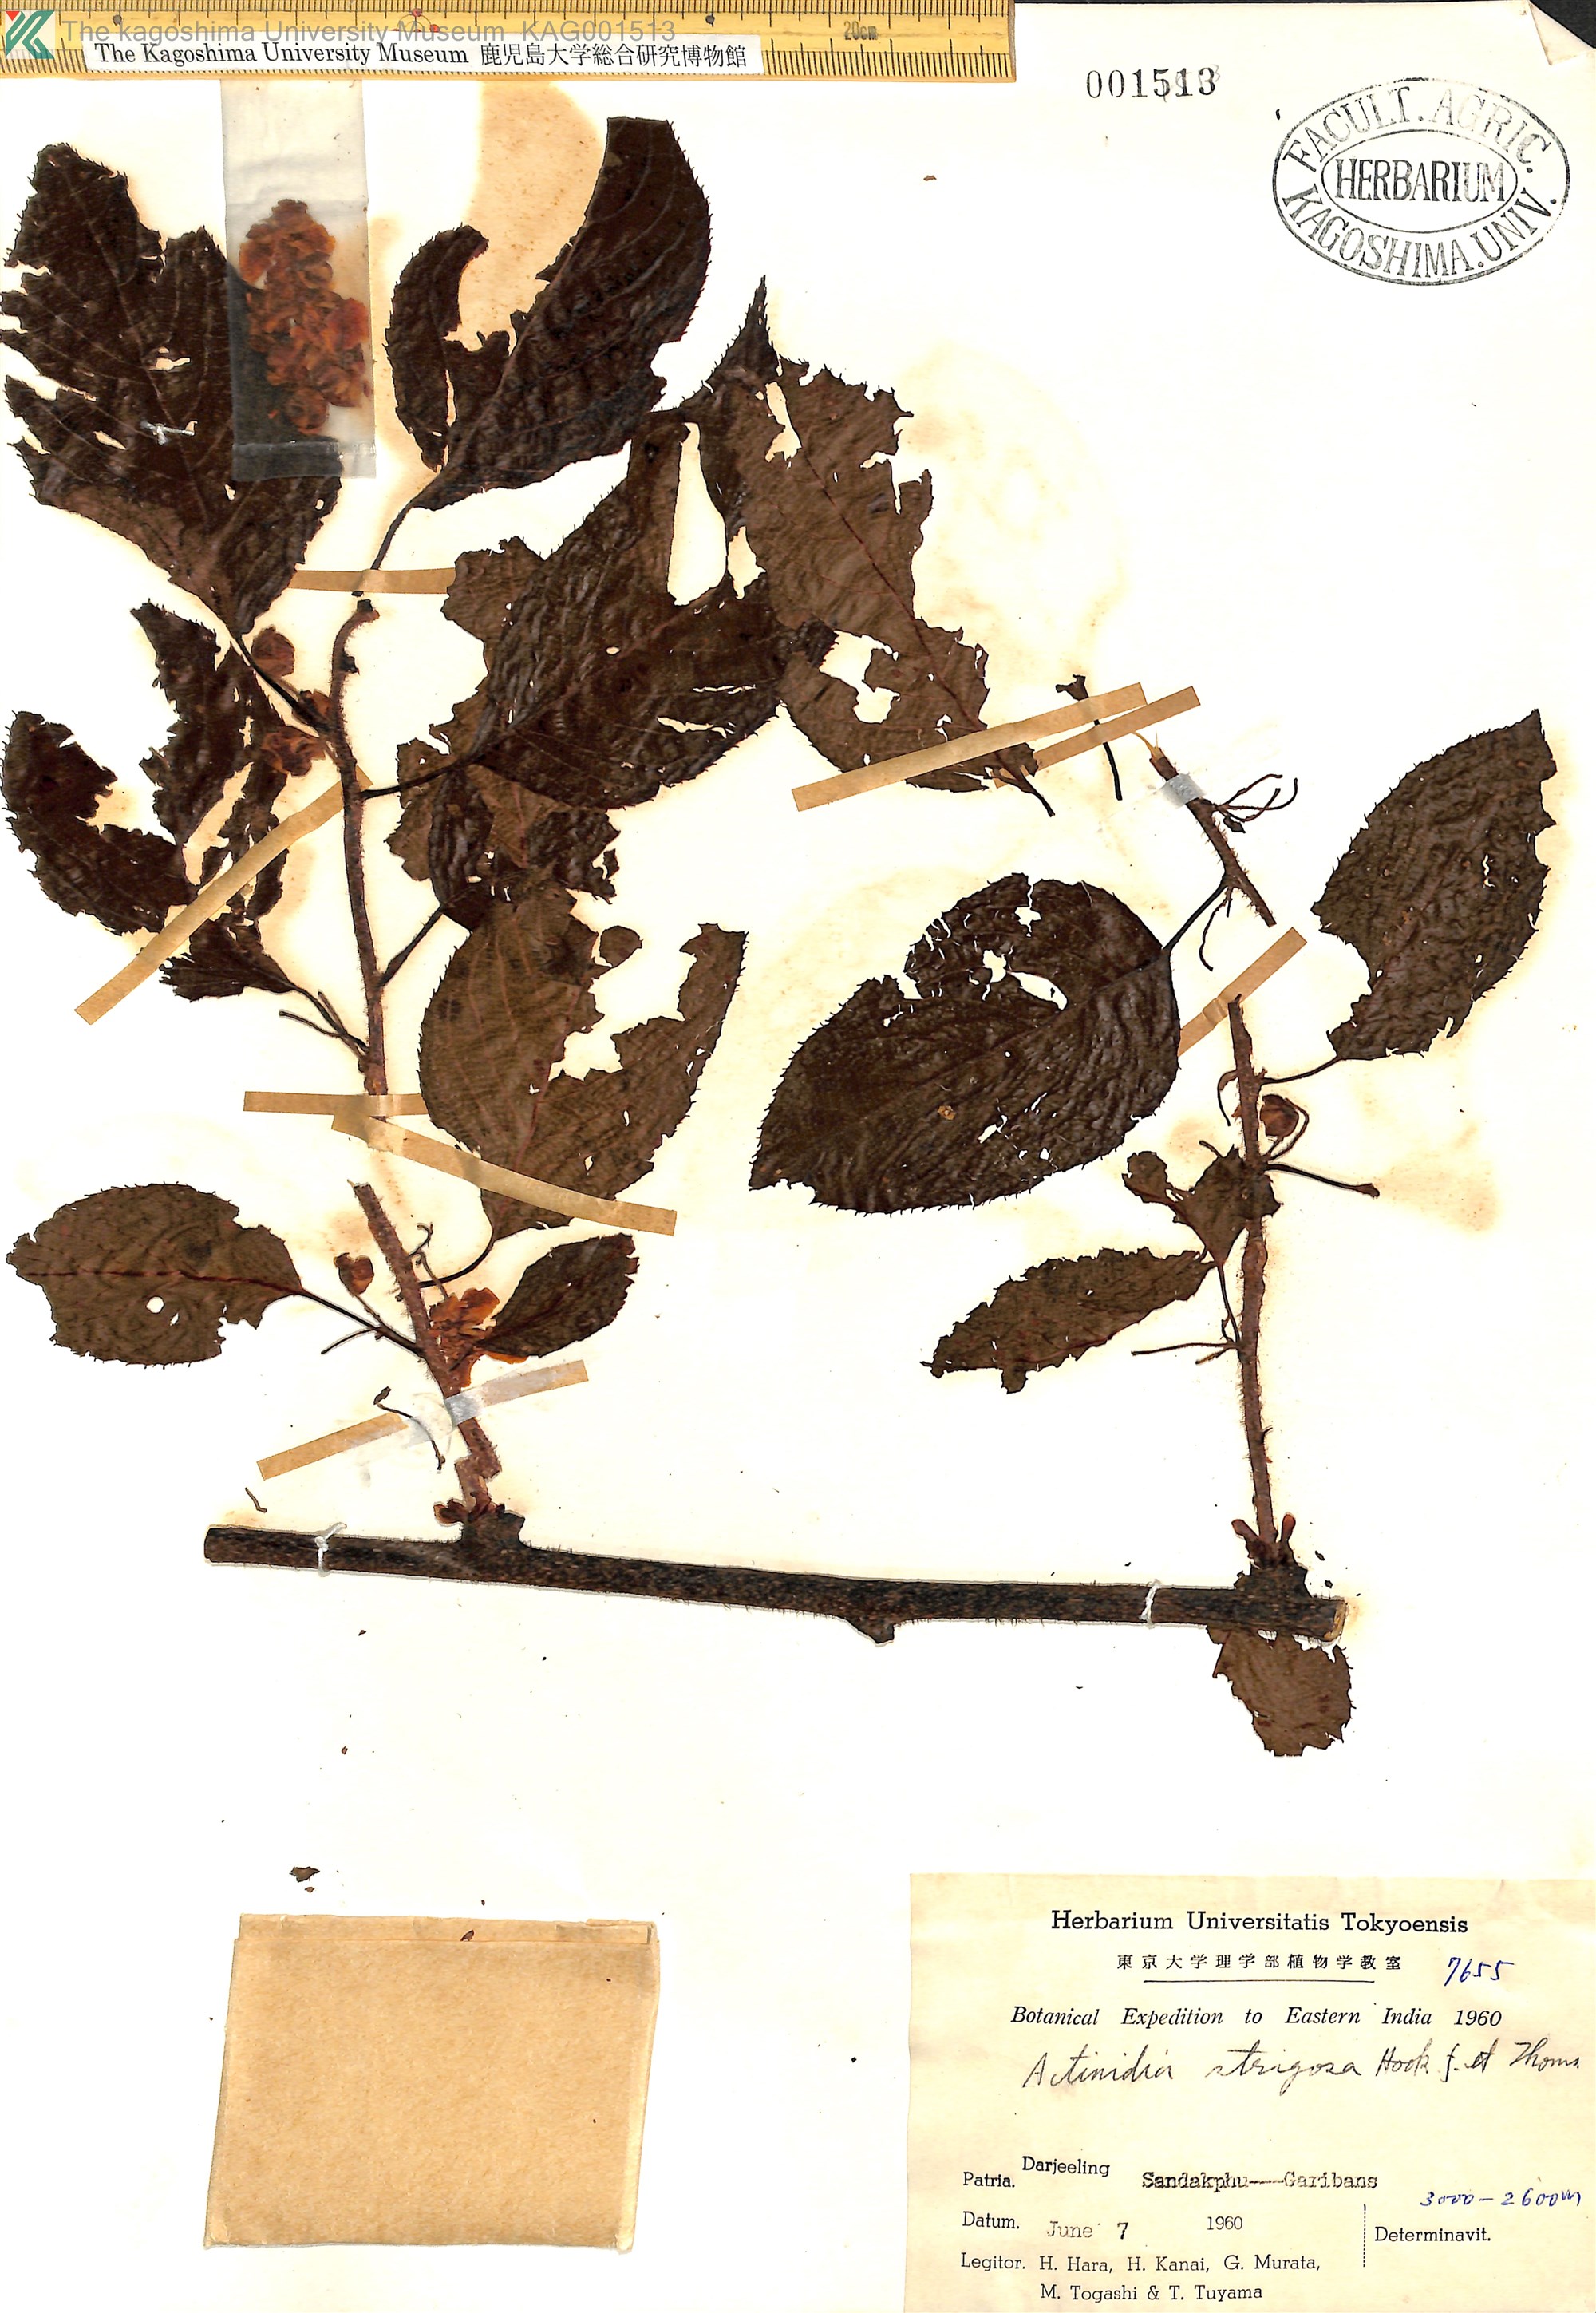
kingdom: Plantae
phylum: Tracheophyta
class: Magnoliopsida
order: Ericales
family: Actinidiaceae
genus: Actinidia
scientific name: Actinidia strigosa
